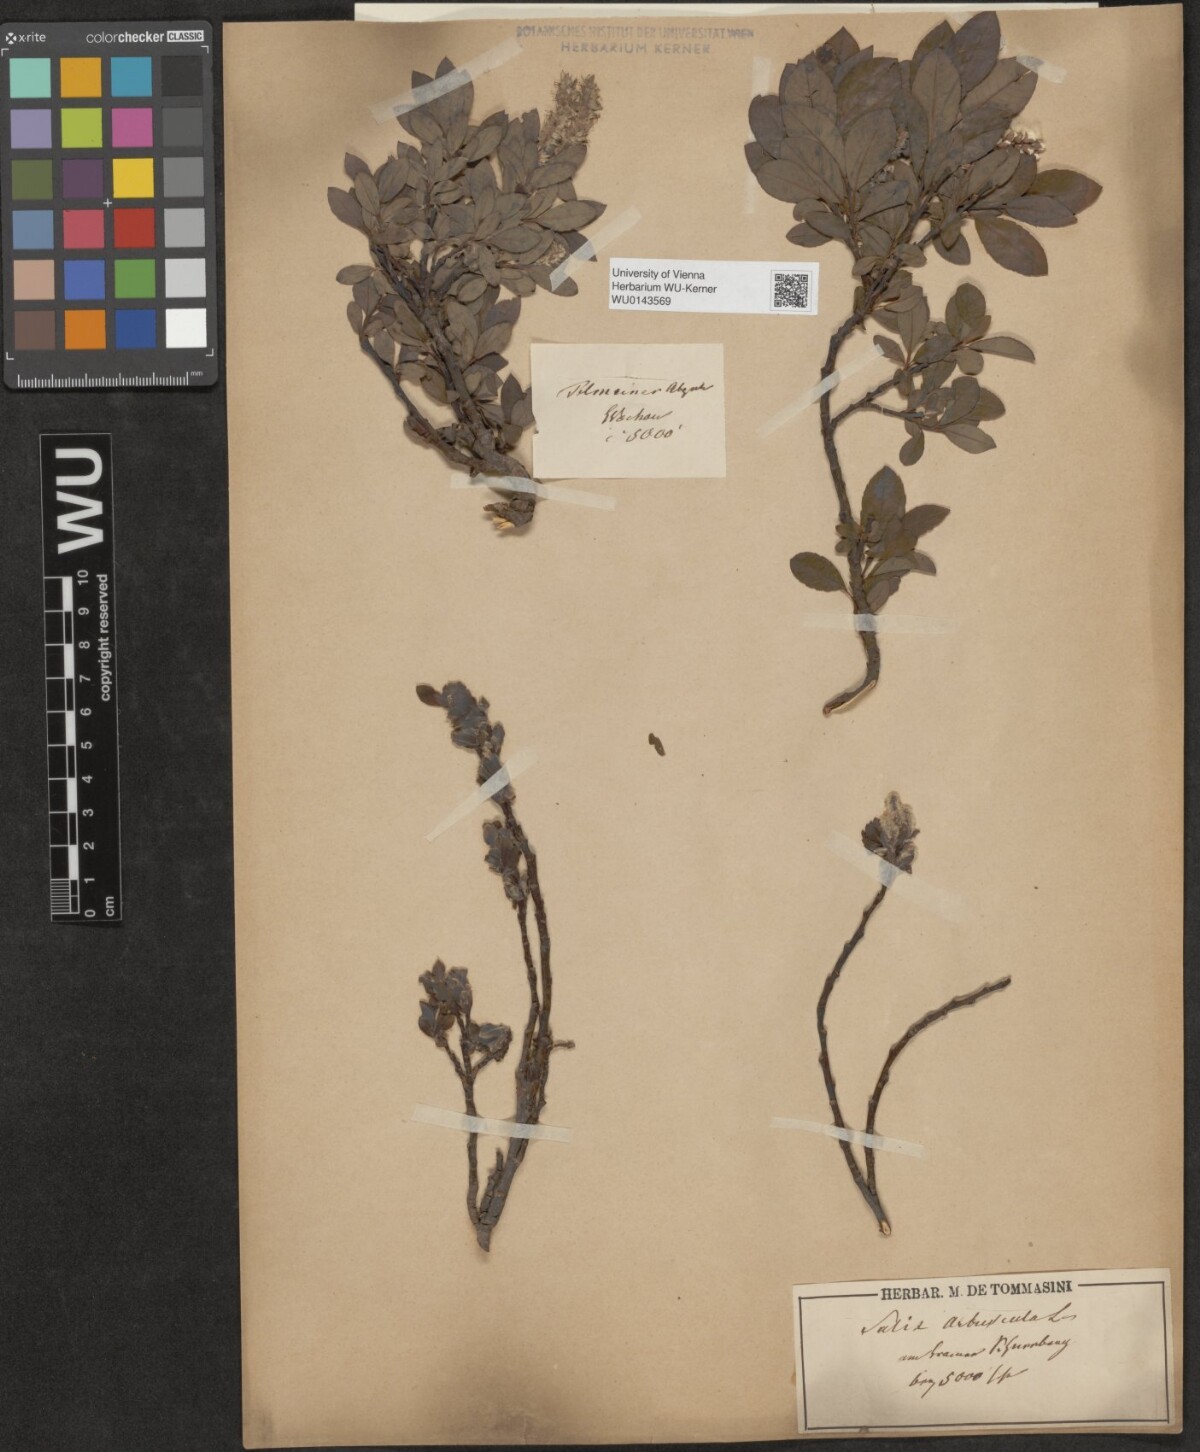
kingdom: Plantae
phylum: Tracheophyta
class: Magnoliopsida
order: Malpighiales
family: Salicaceae
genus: Salix
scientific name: Salix waldsteiniana
